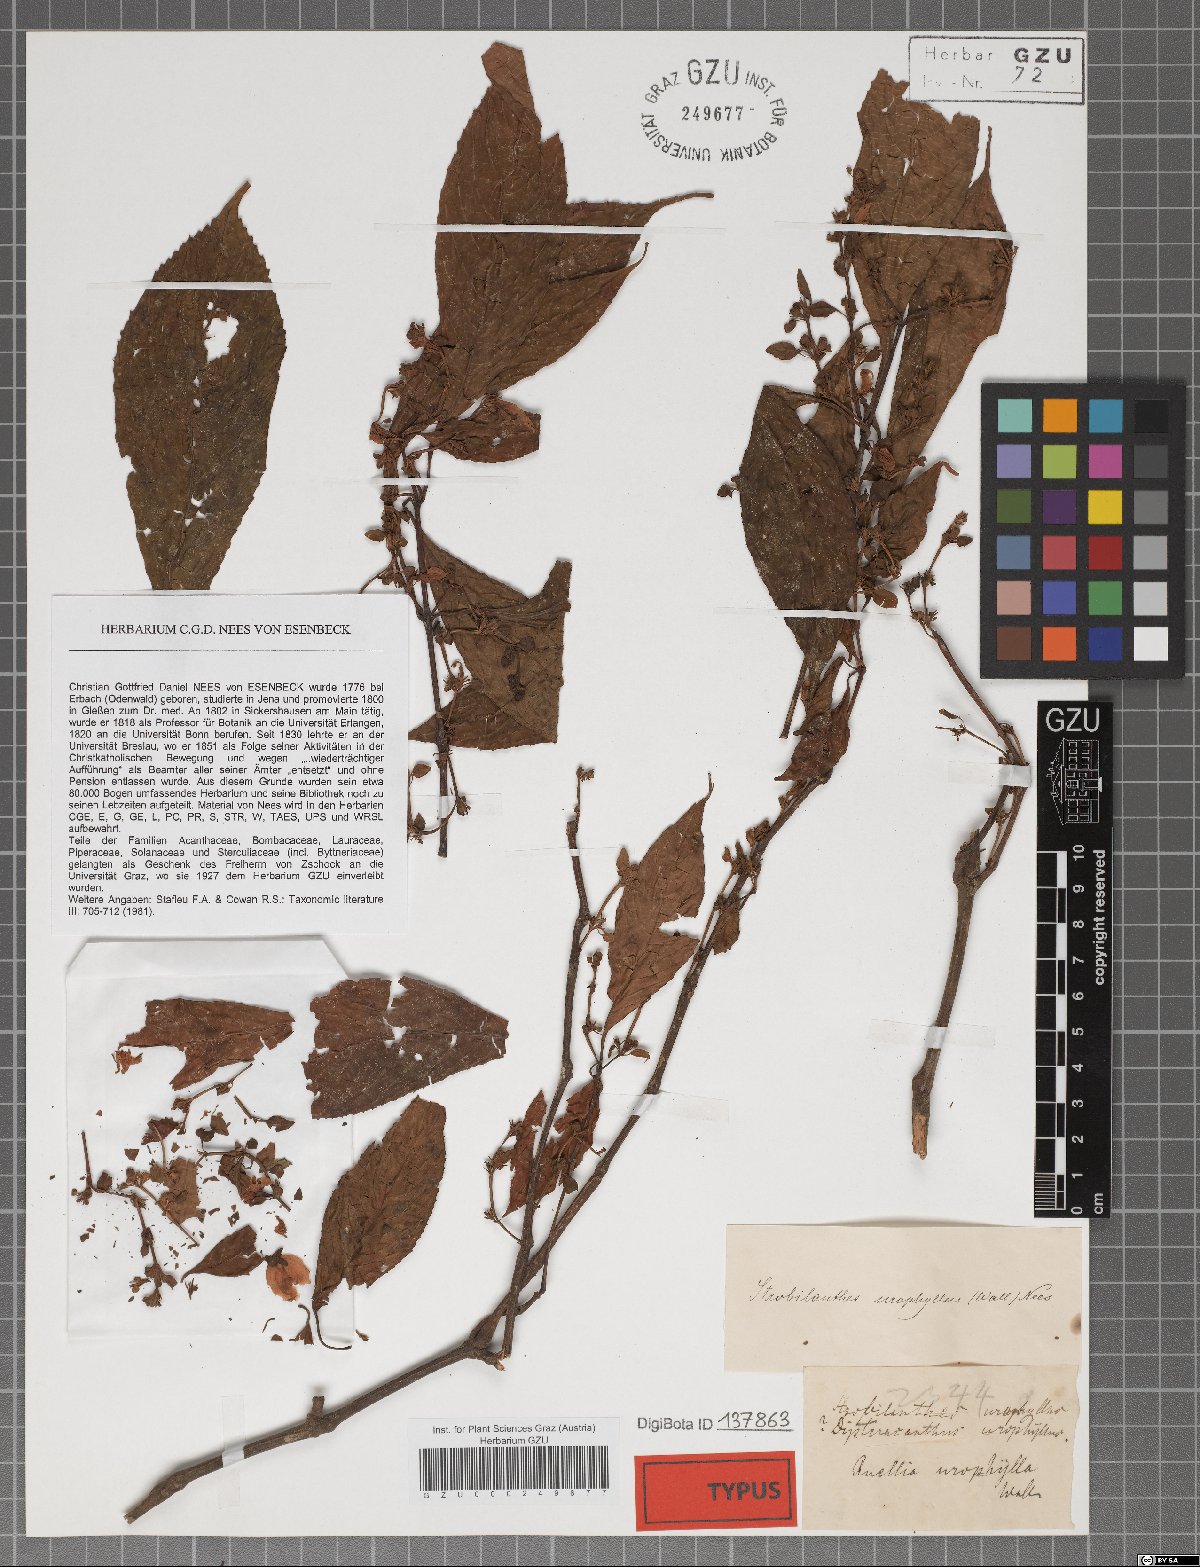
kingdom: Plantae
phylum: Tracheophyta
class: Magnoliopsida
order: Lamiales
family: Acanthaceae
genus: Strobilanthes
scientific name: Strobilanthes urophylla
